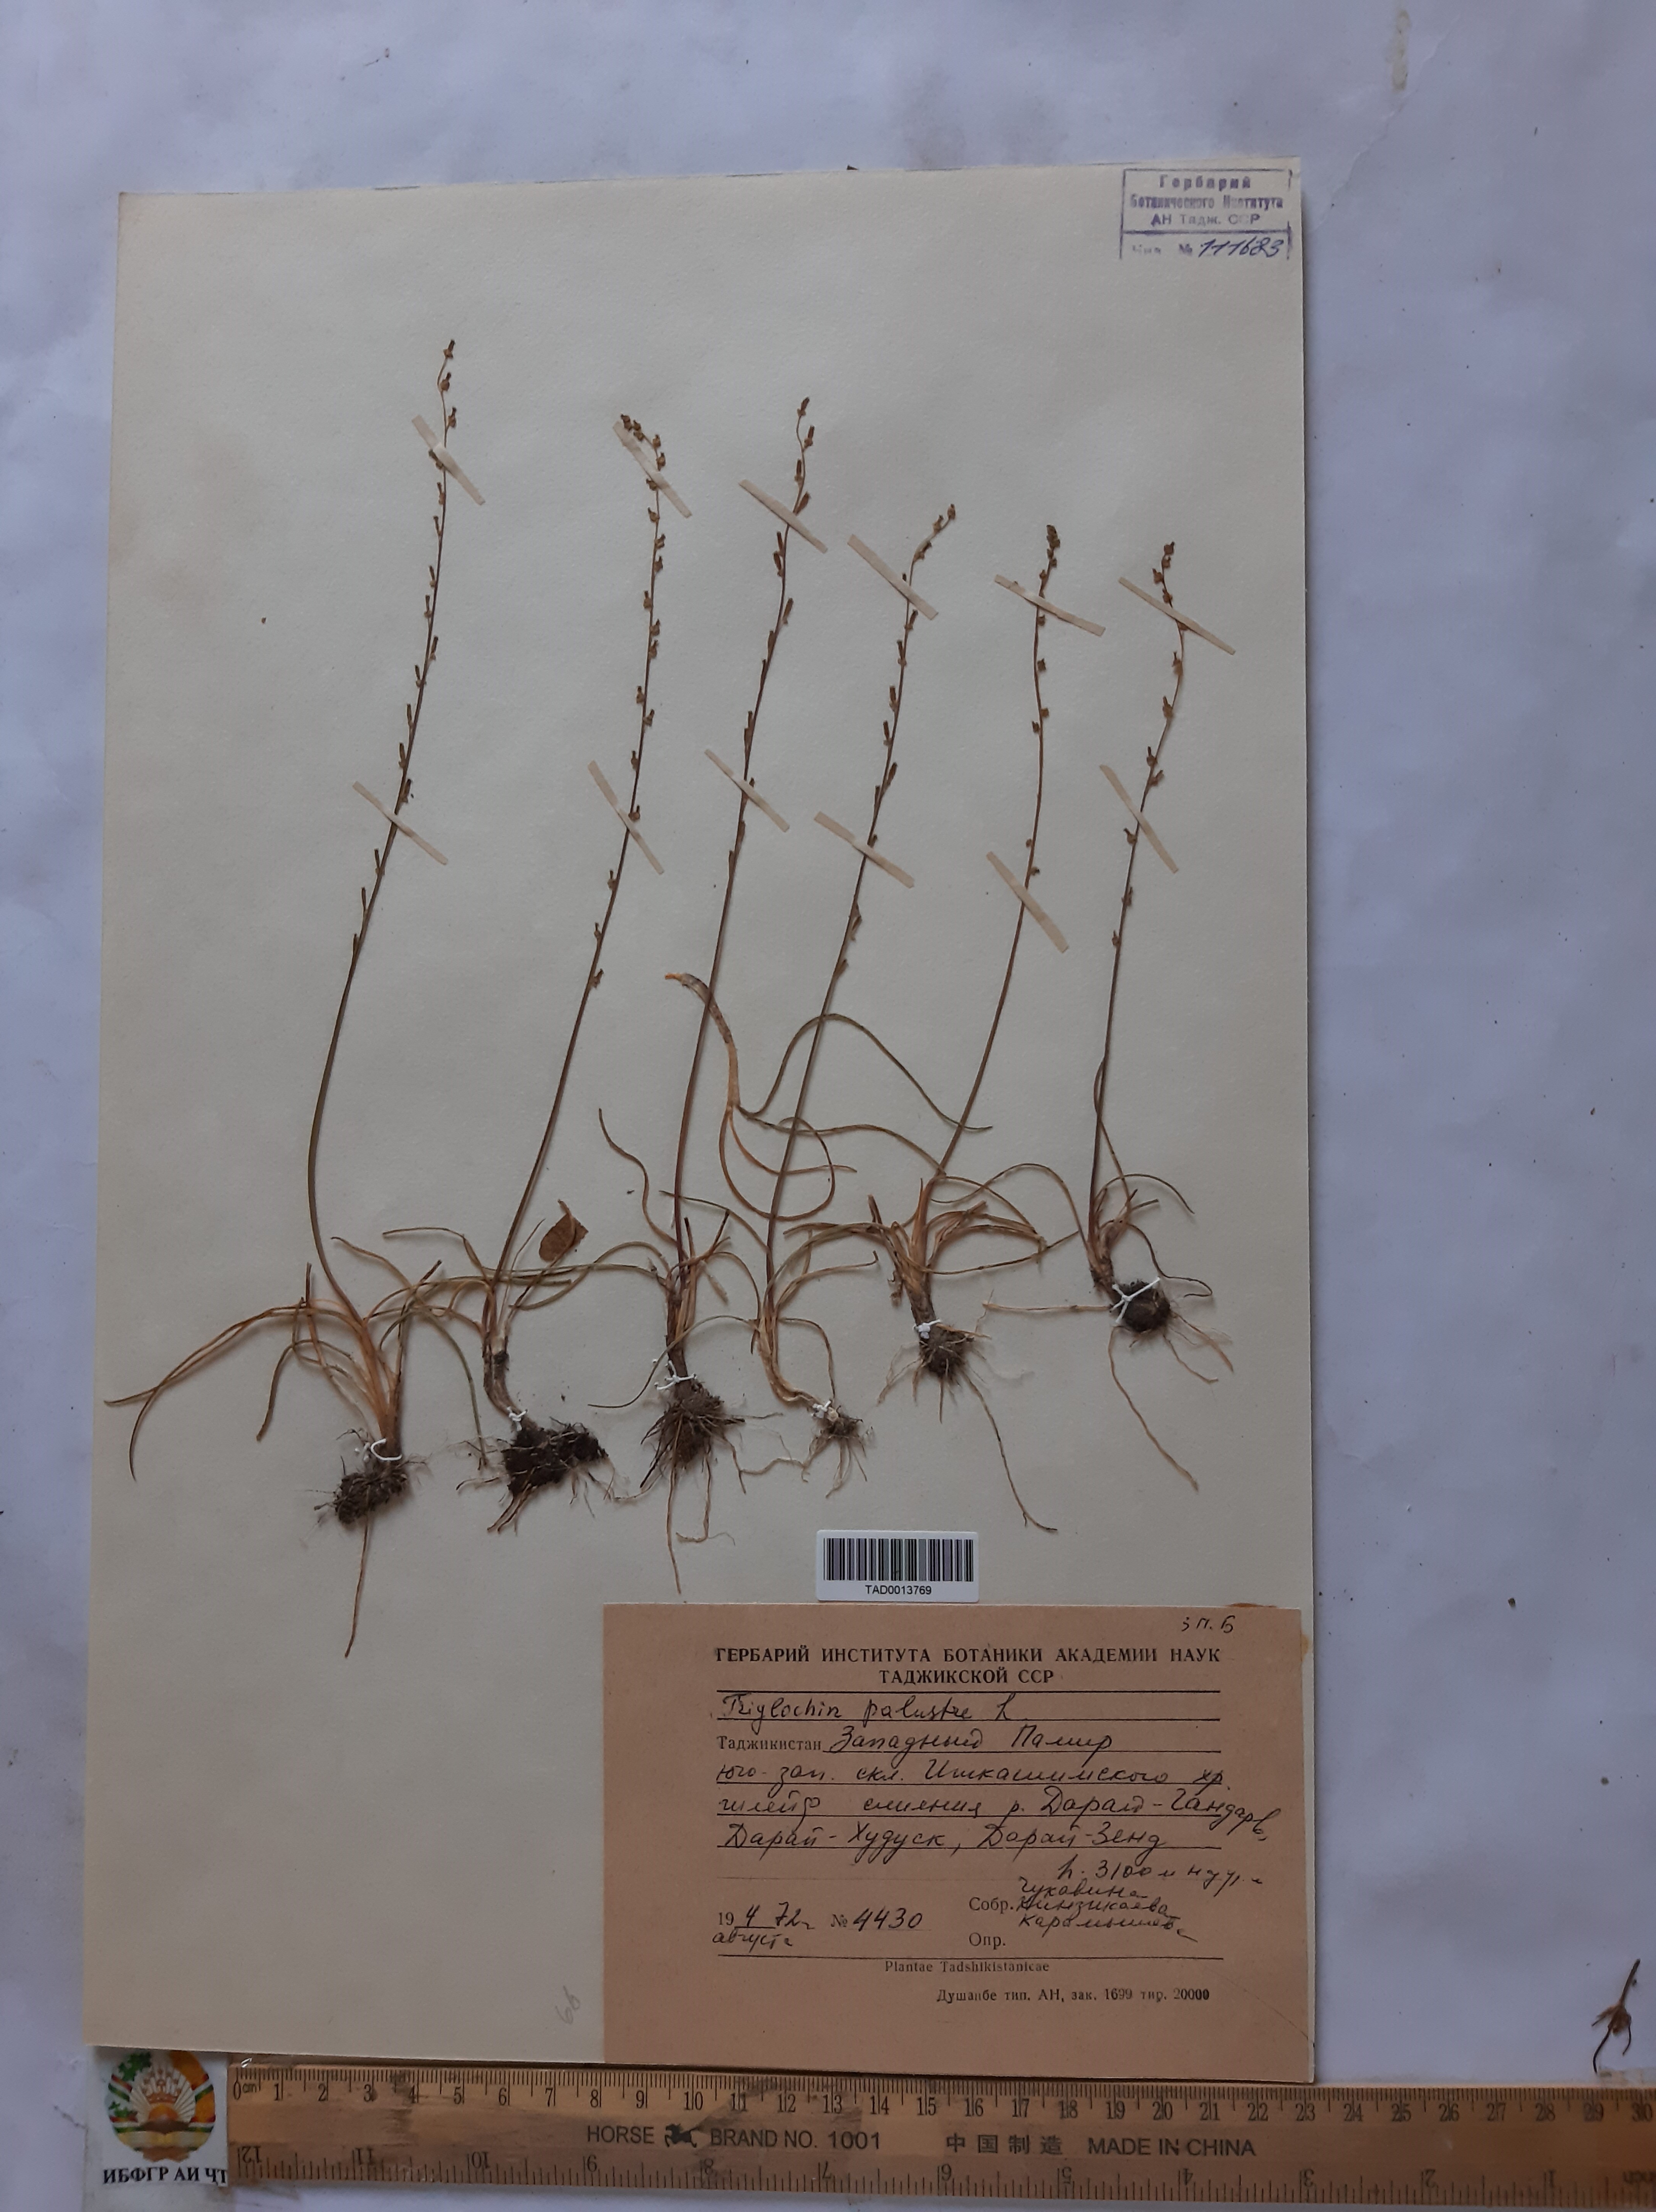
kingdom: Plantae
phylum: Tracheophyta
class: Liliopsida
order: Alismatales
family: Juncaginaceae
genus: Triglochin
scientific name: Triglochin palustris
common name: Marsh arrowgrass
